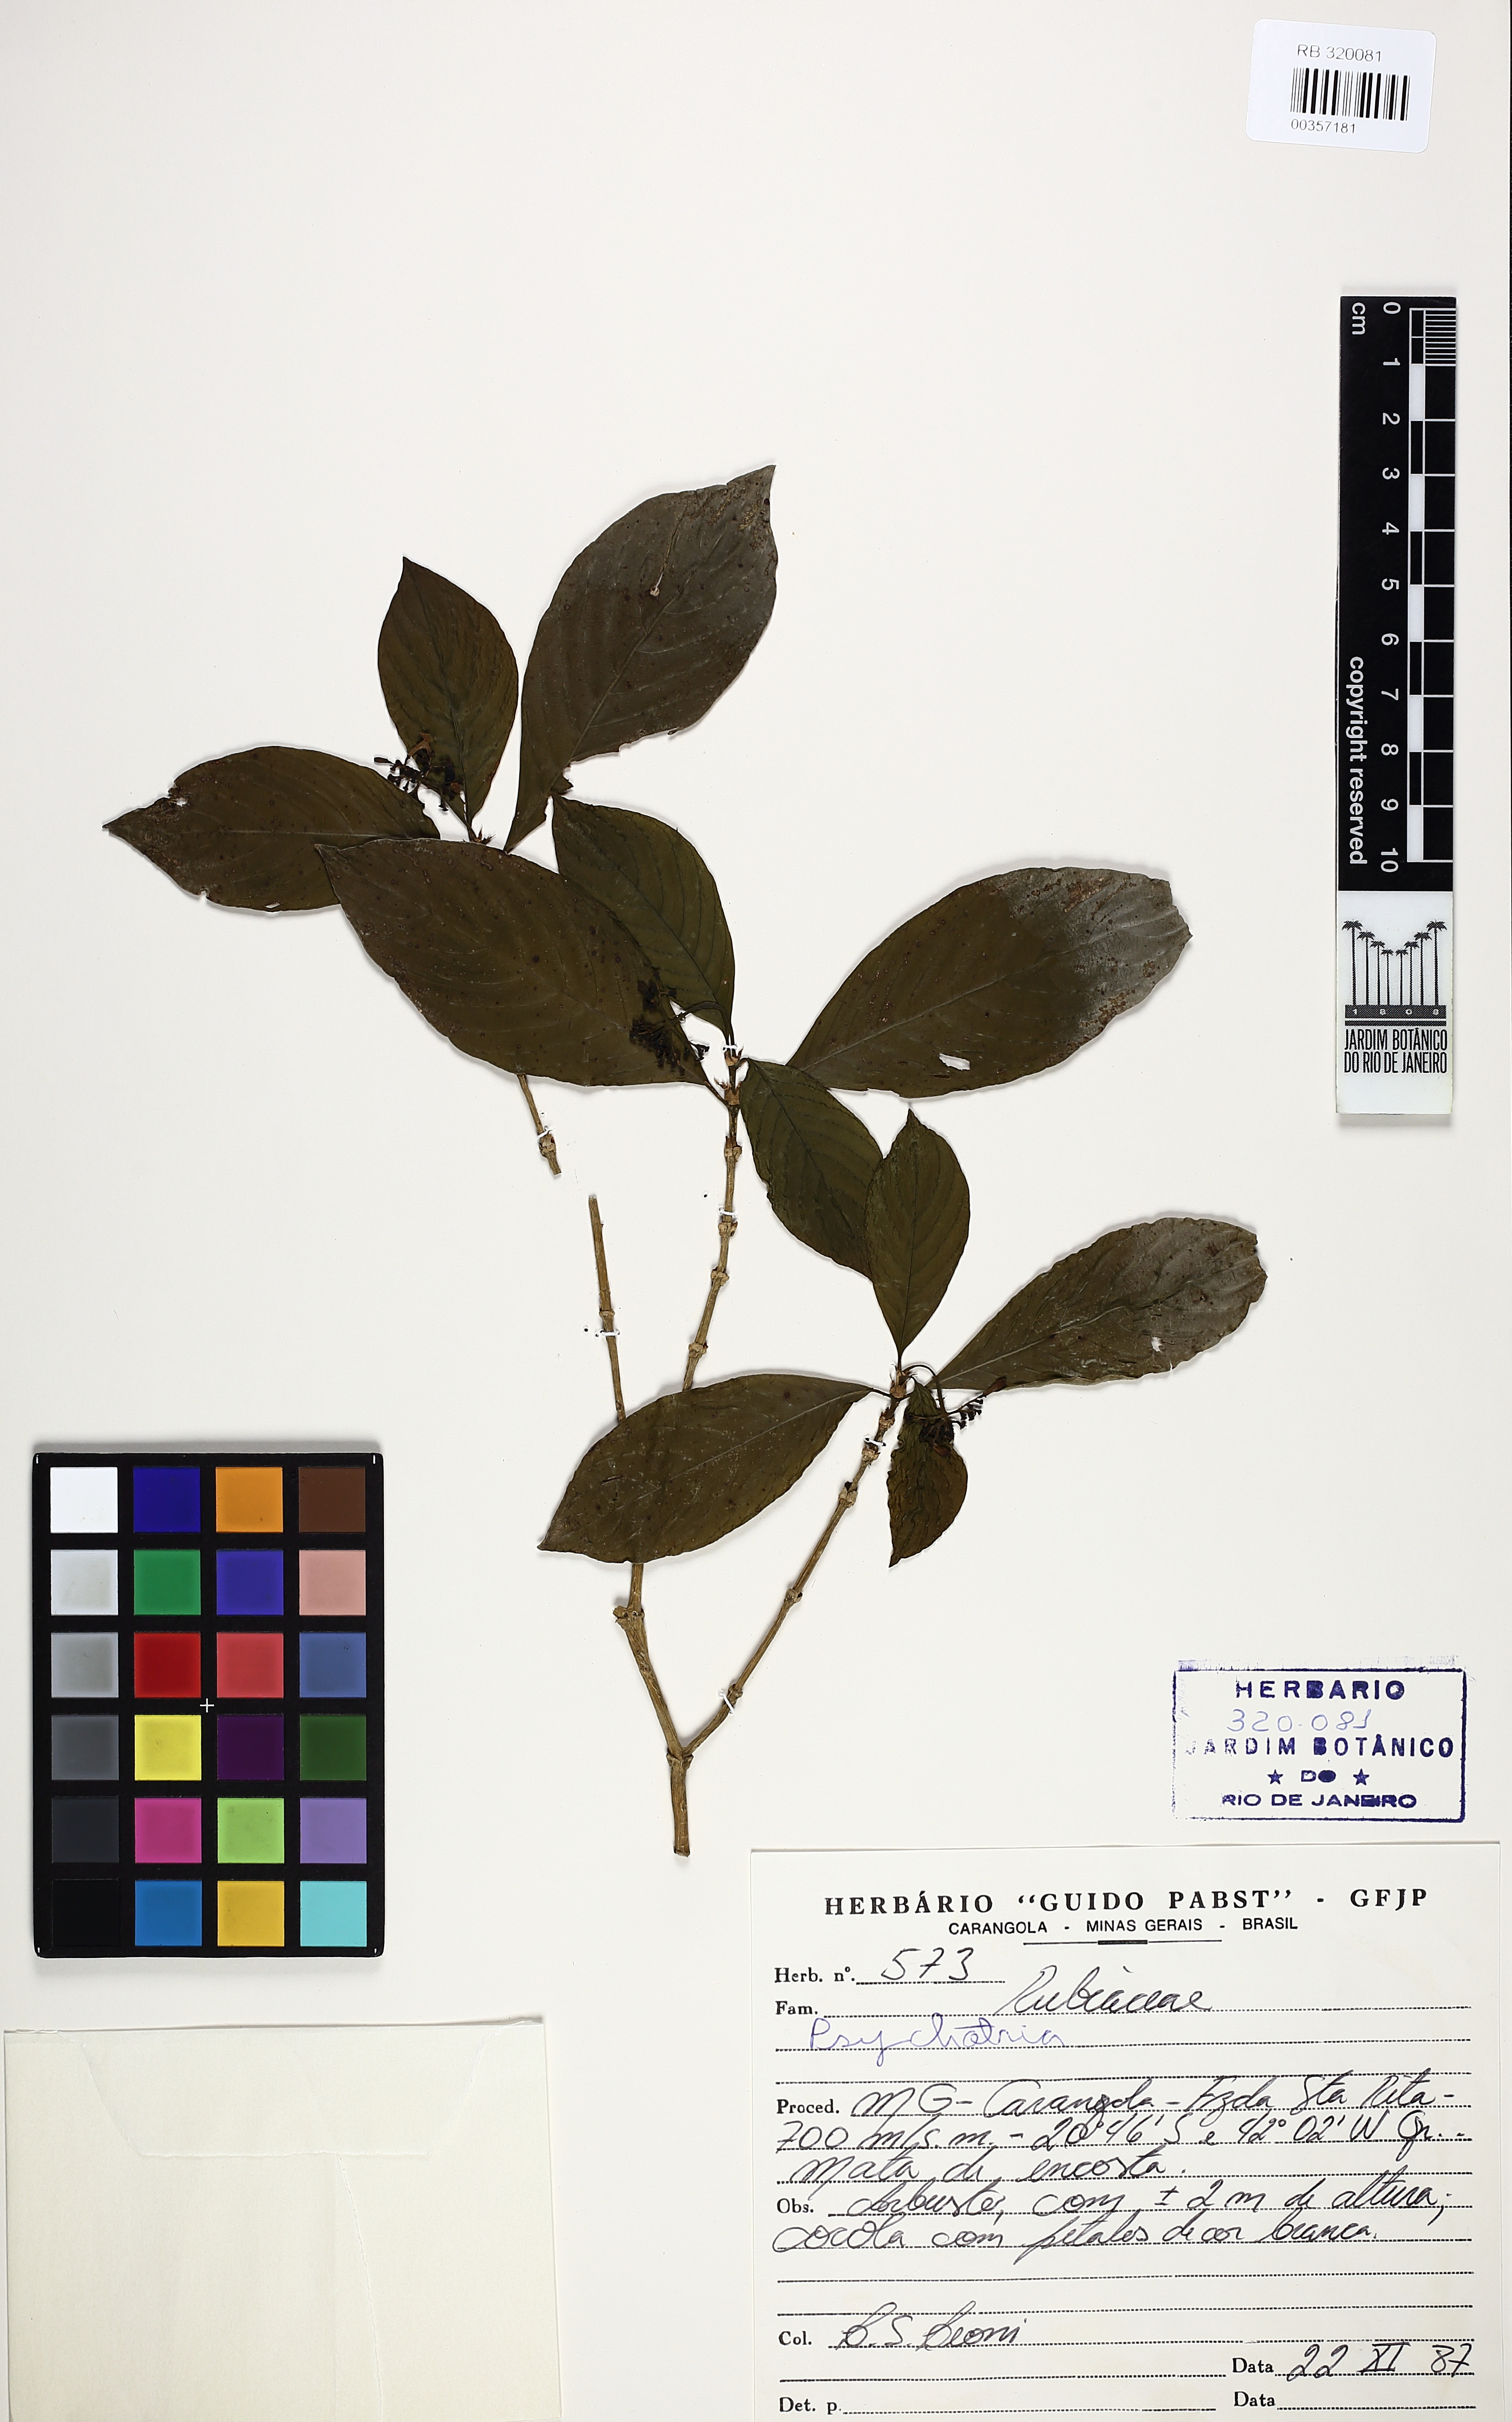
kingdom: Plantae
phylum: Tracheophyta
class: Magnoliopsida
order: Gentianales
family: Rubiaceae
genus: Psychotria
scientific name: Psychotria rhytidocarpa
